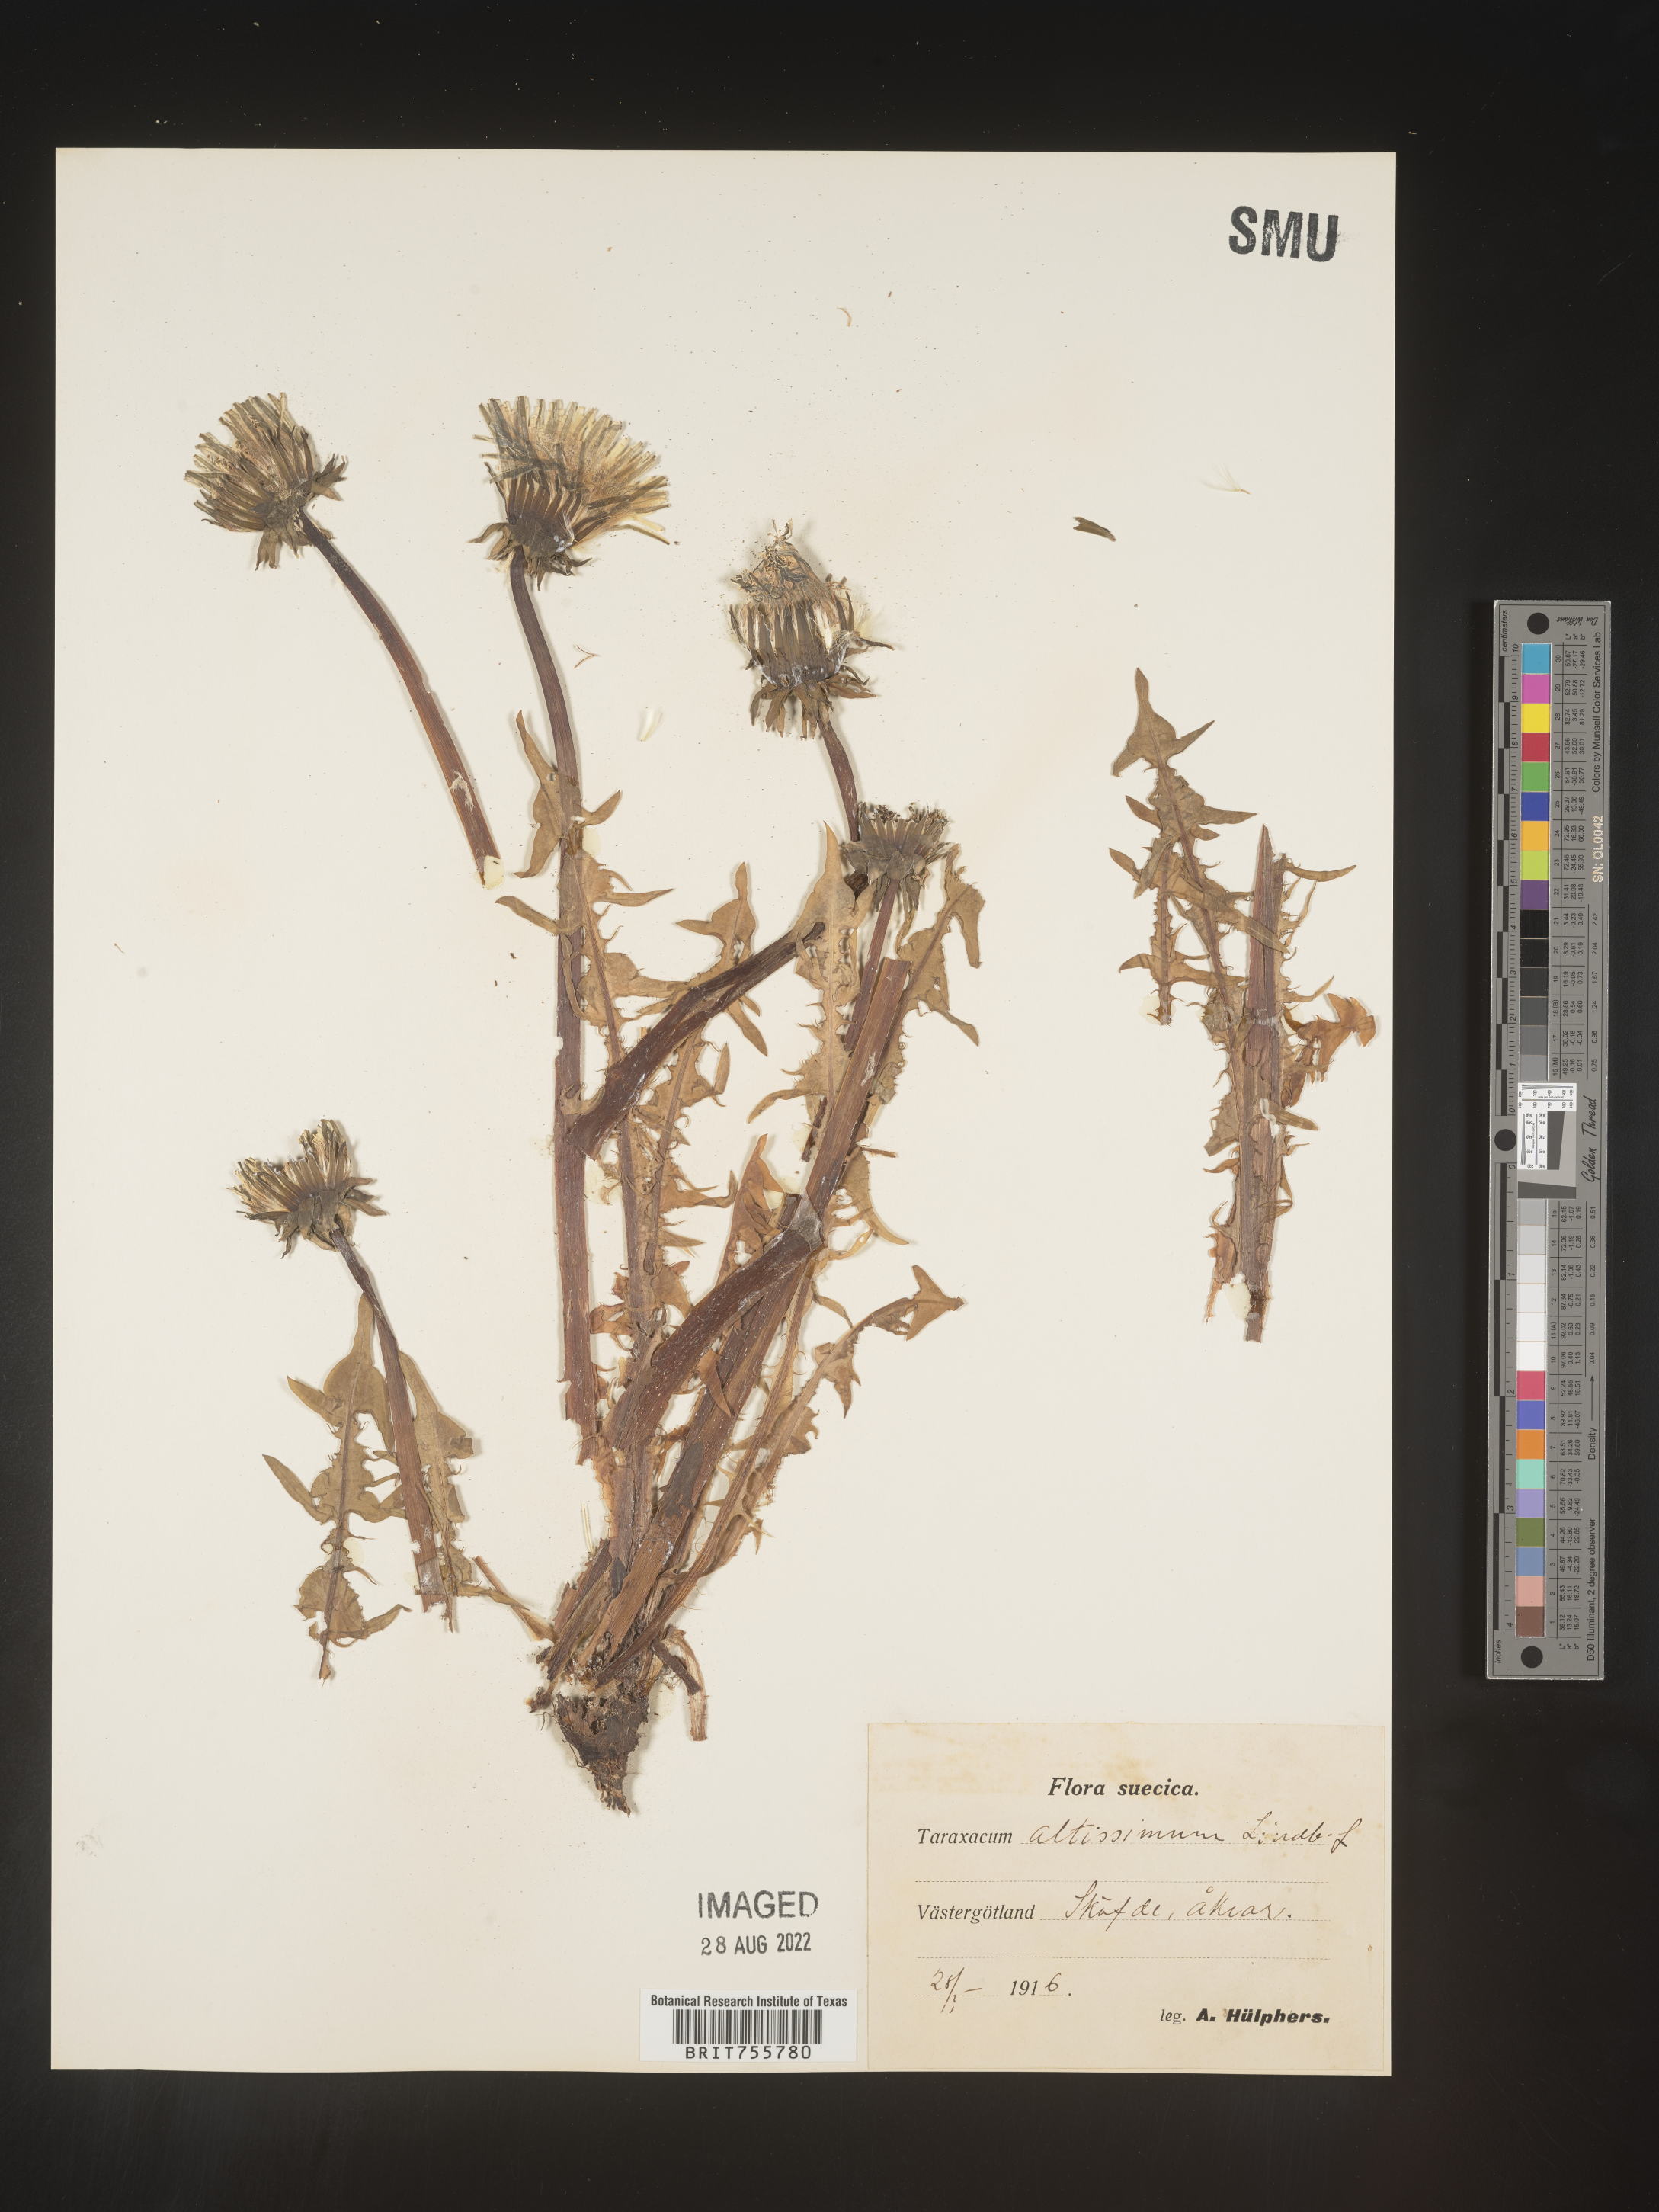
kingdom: Plantae
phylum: Tracheophyta
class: Magnoliopsida
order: Asterales
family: Asteraceae
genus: Taraxacum
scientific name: Taraxacum
